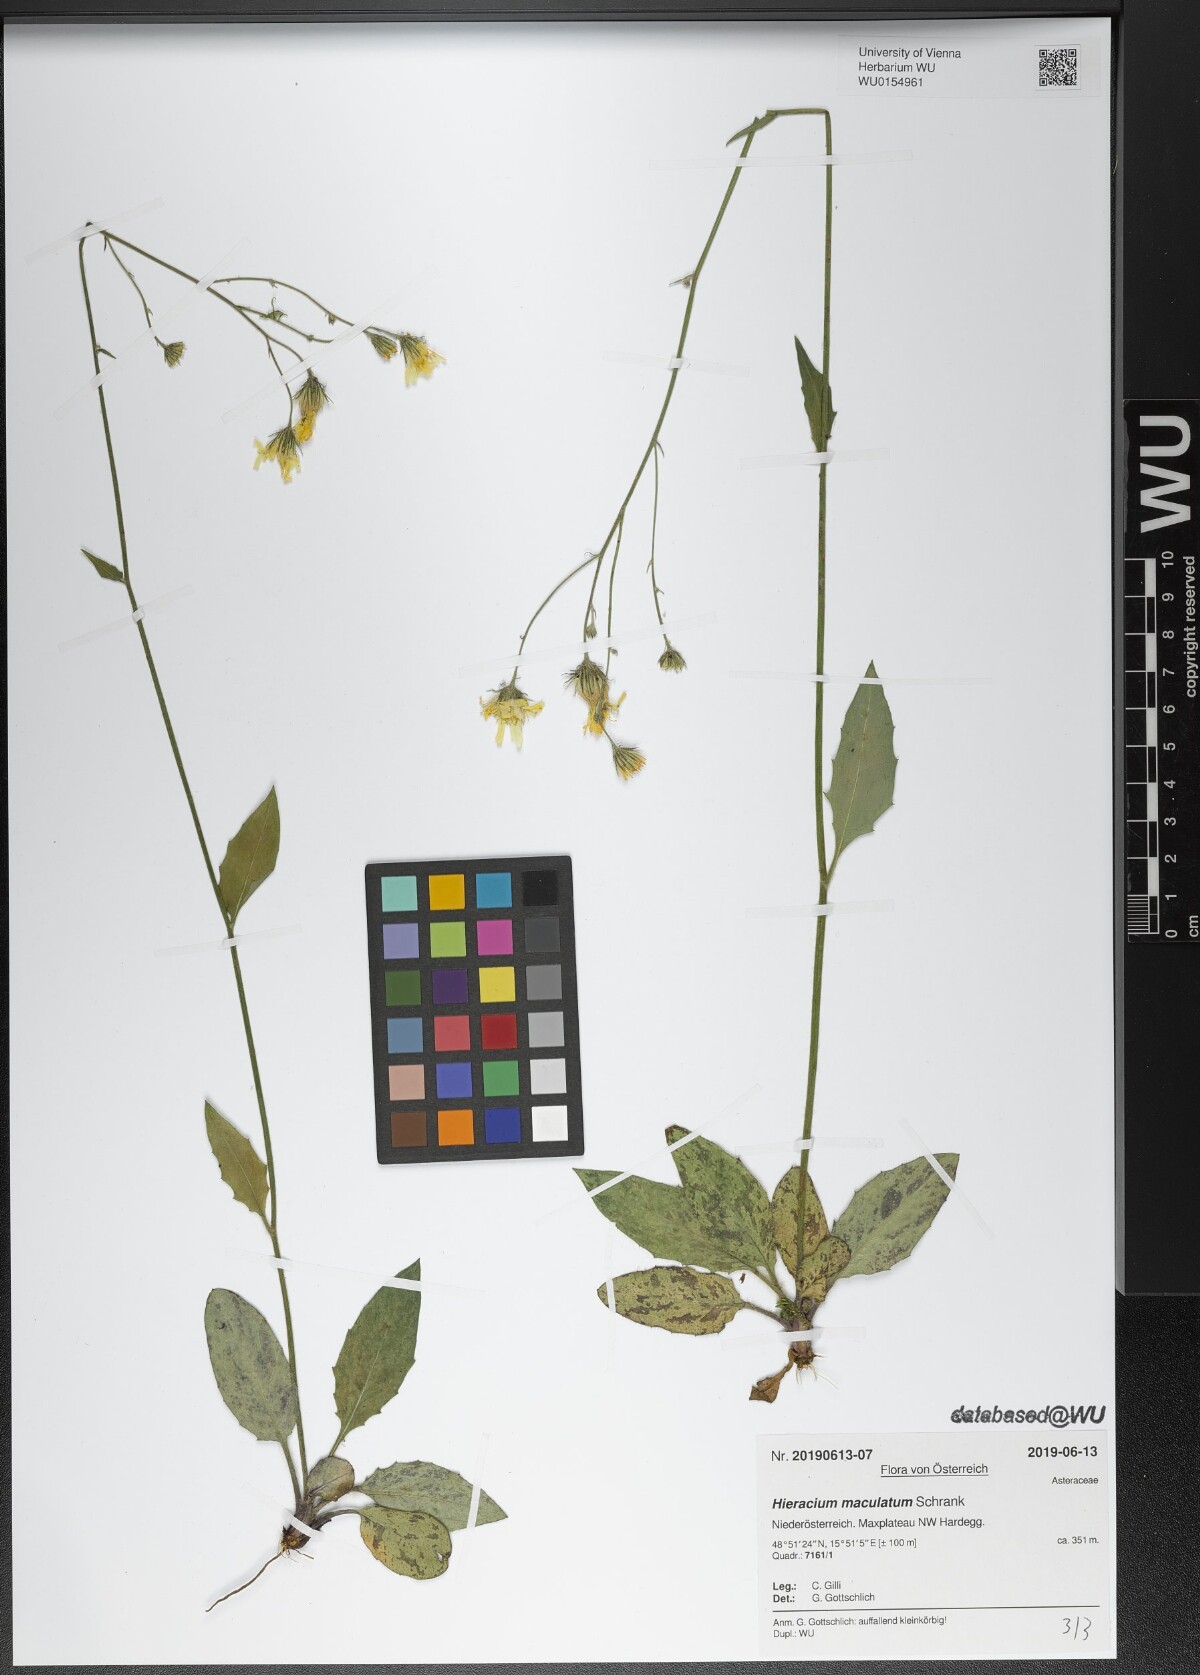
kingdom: Plantae
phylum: Tracheophyta
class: Magnoliopsida
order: Asterales
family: Asteraceae
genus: Hieracium
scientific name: Hieracium maculatum
